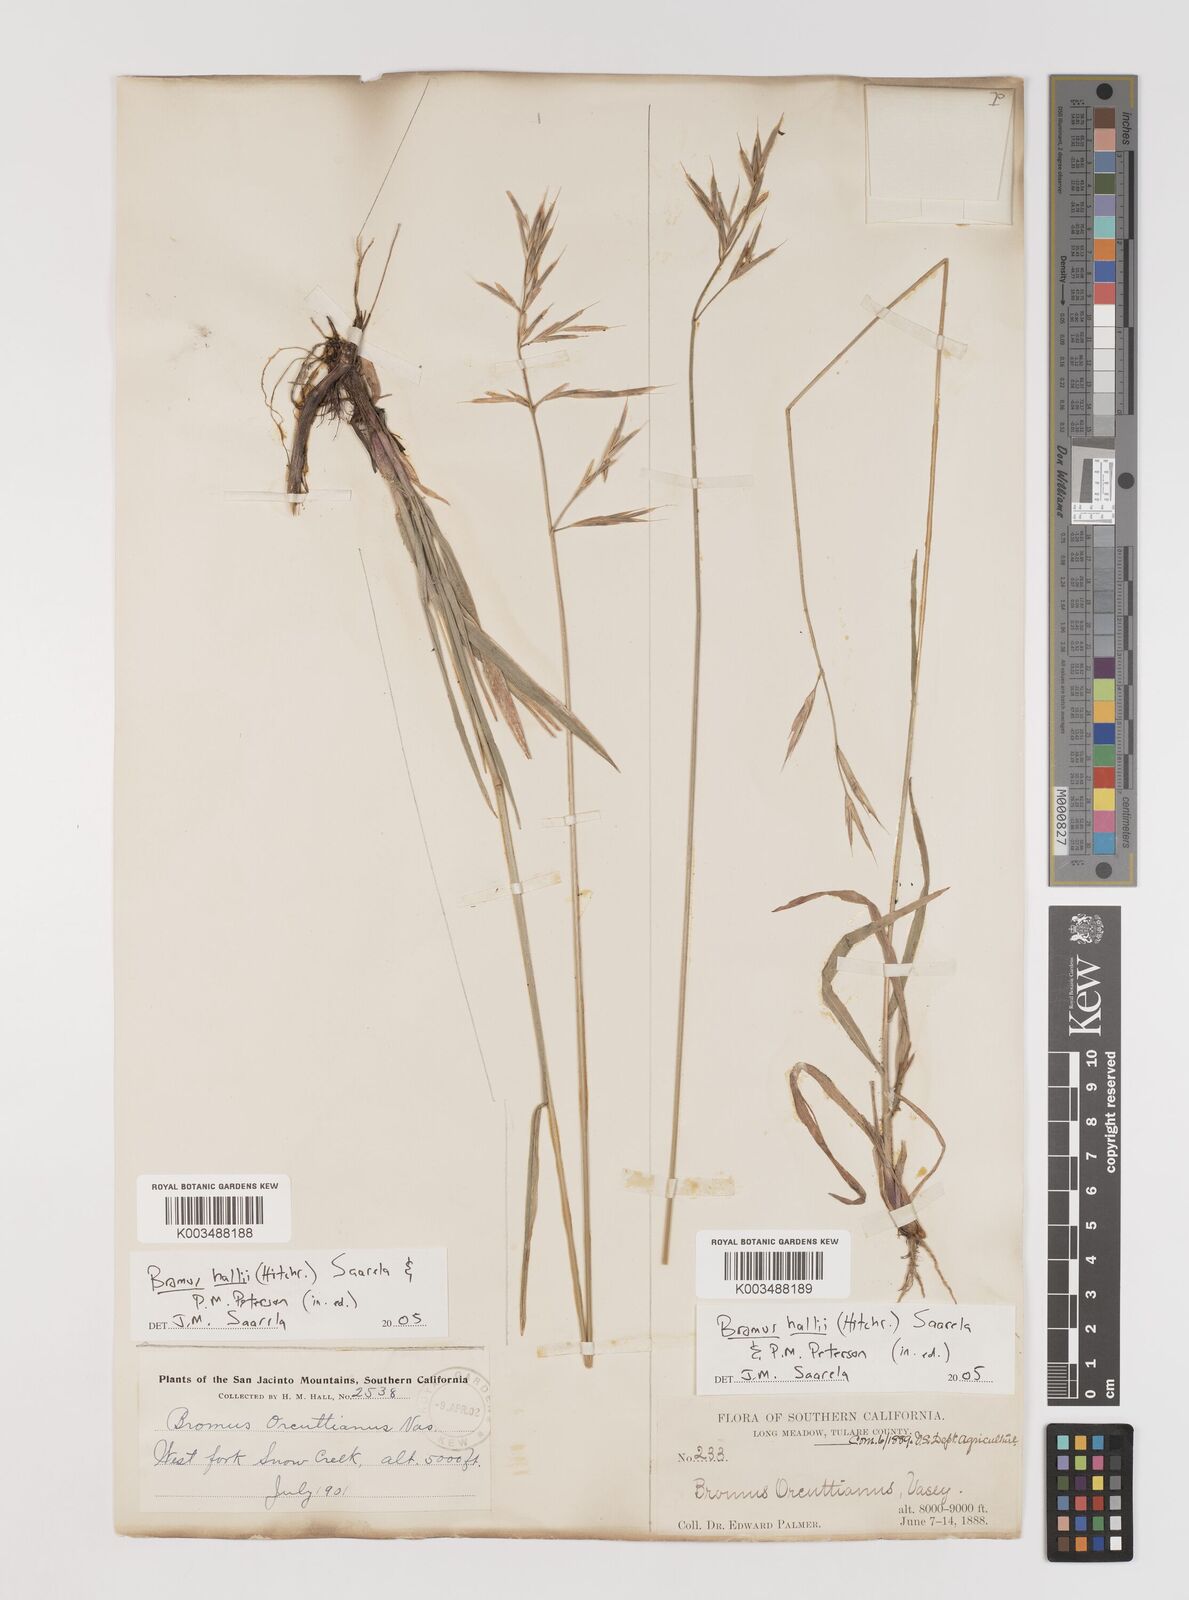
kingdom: Plantae
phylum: Tracheophyta
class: Liliopsida
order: Poales
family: Poaceae
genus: Bromus
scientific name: Bromus
